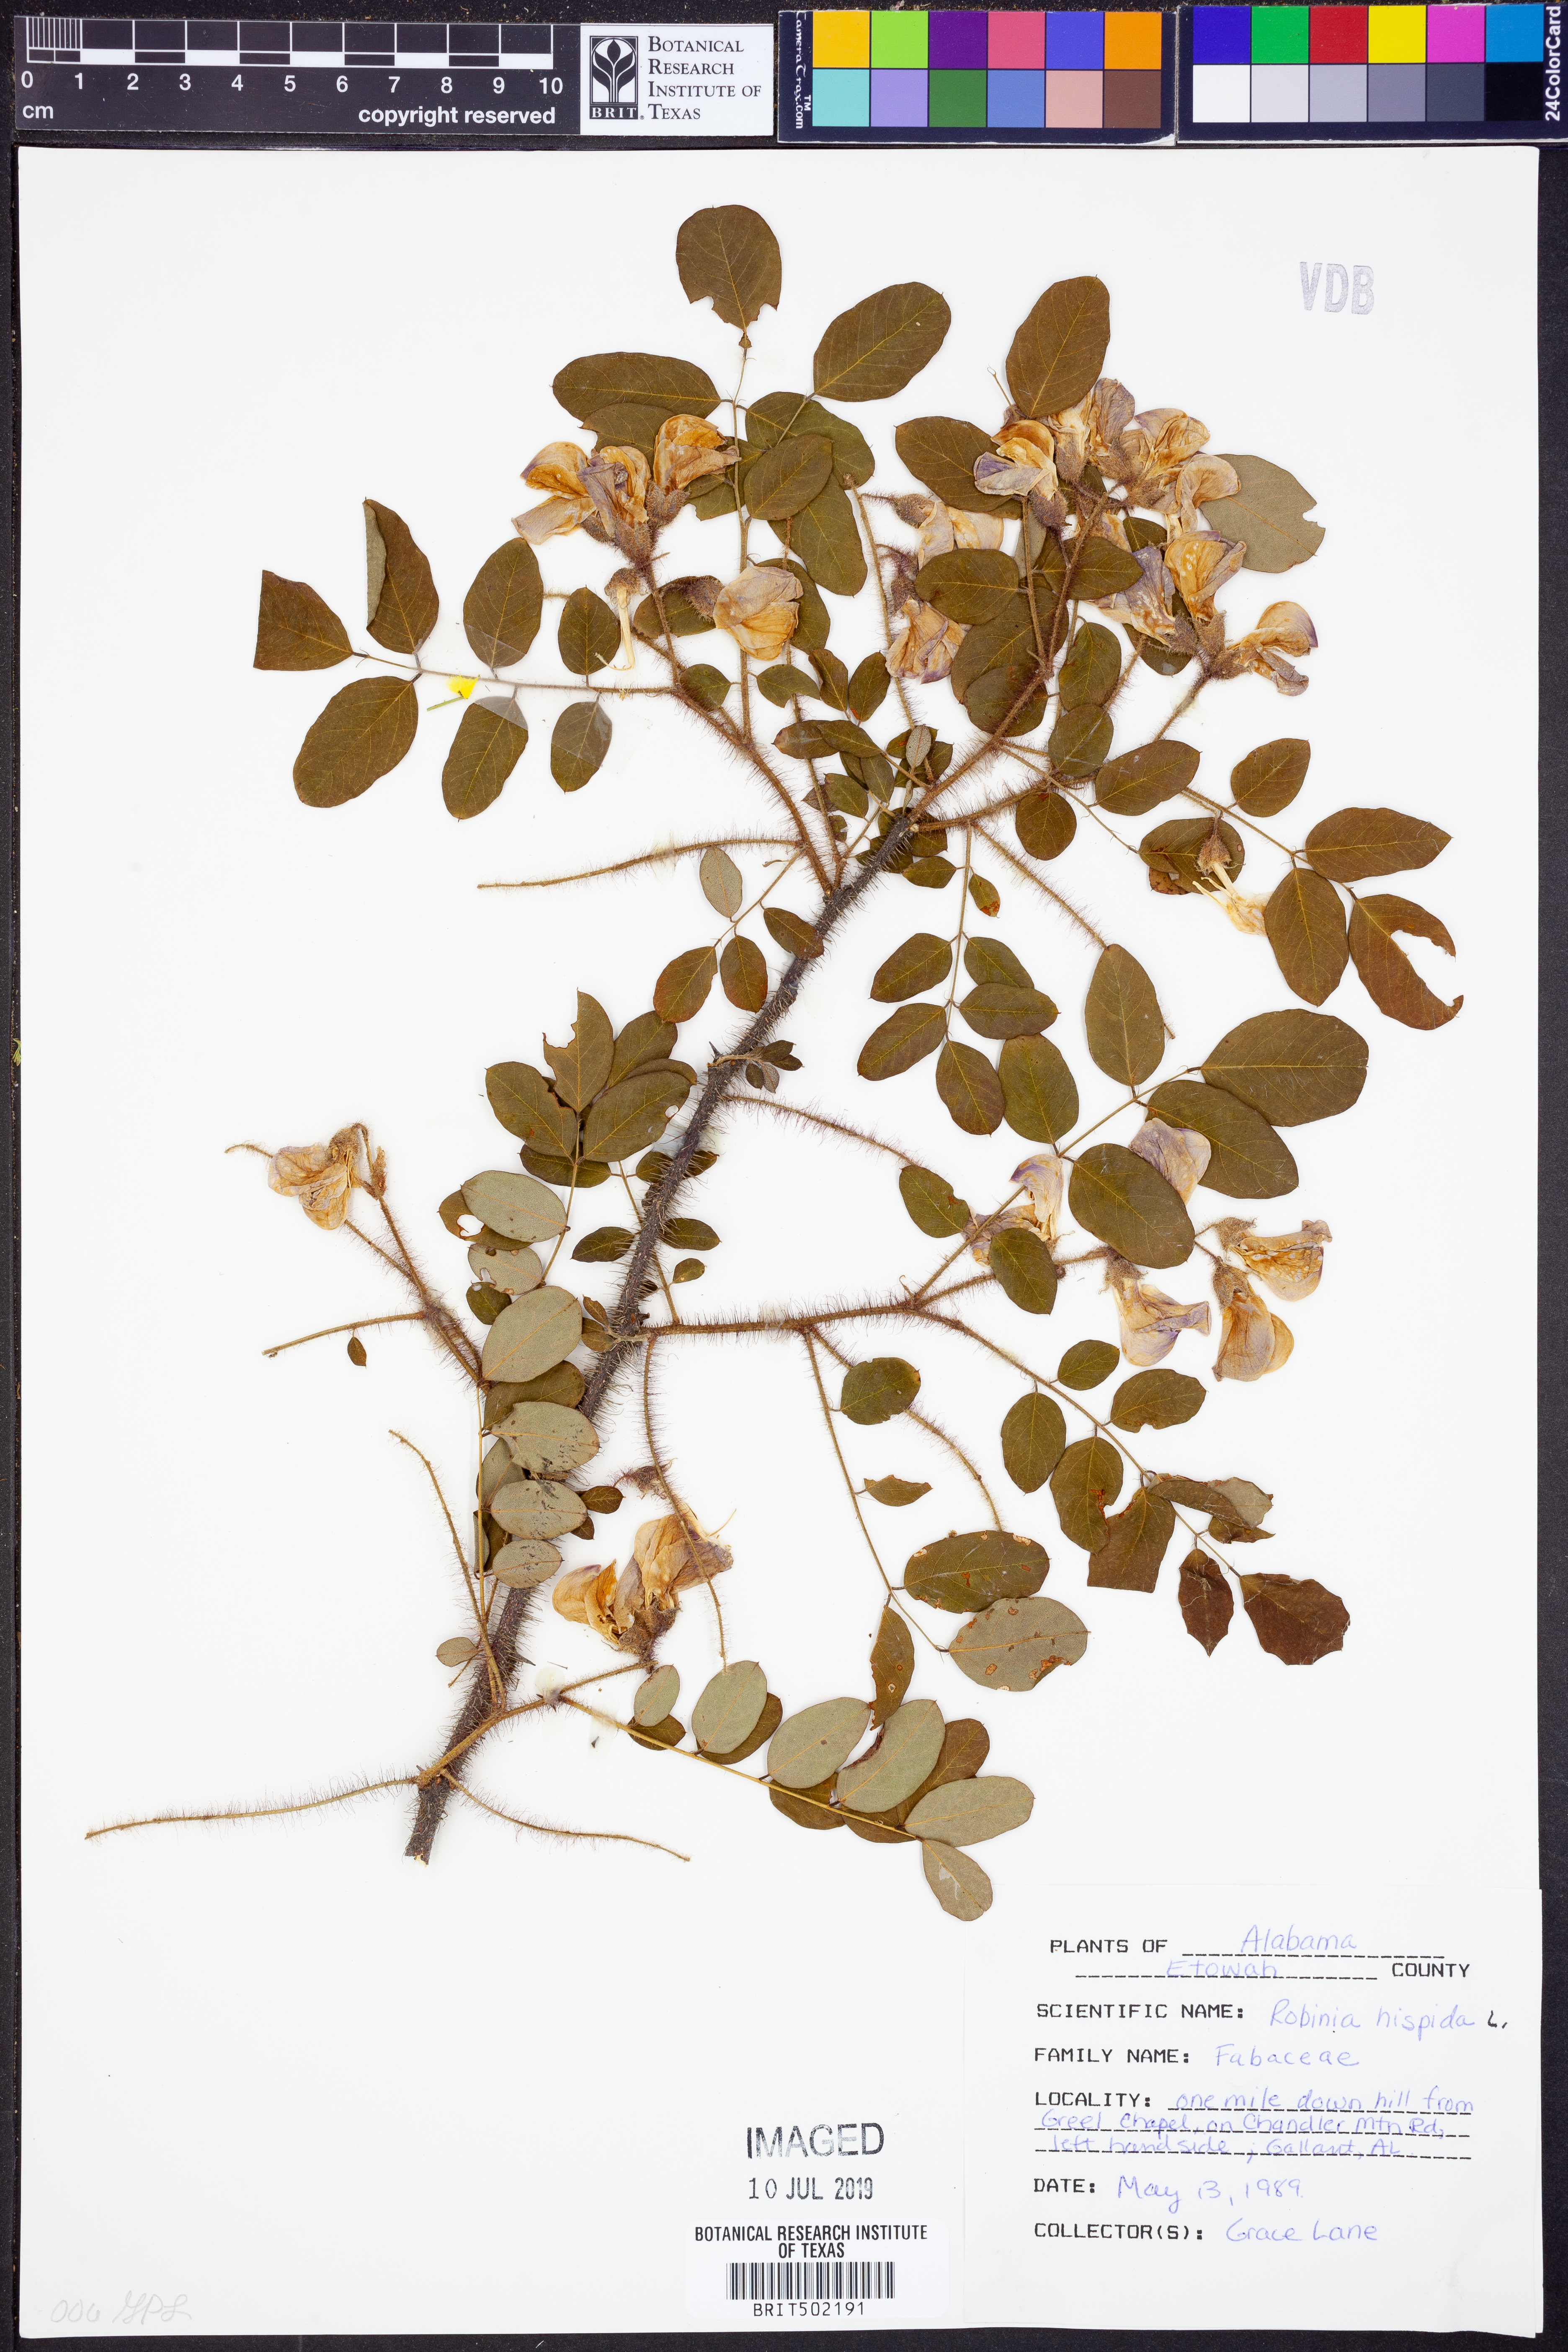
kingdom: Plantae
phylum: Tracheophyta
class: Magnoliopsida
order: Fabales
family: Fabaceae
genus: Robinia
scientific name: Robinia hispida
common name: Bristly locust
